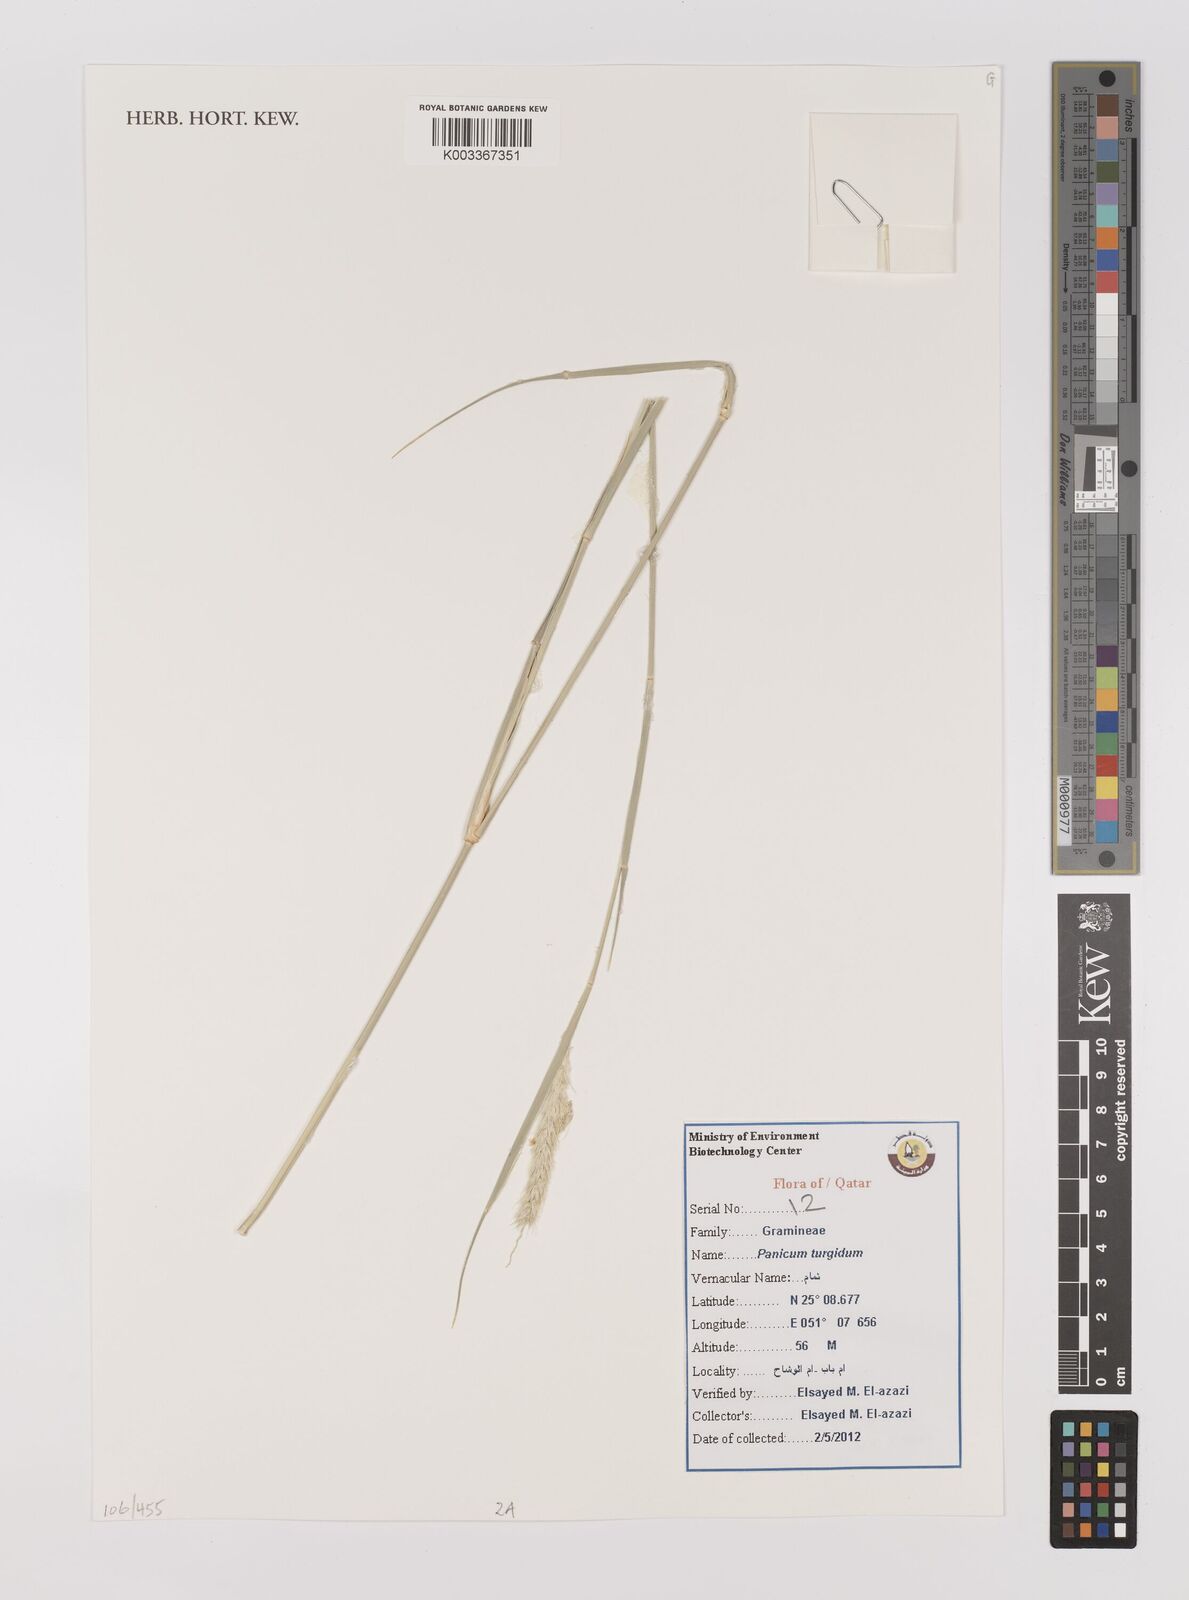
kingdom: Plantae
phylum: Tracheophyta
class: Liliopsida
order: Poales
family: Poaceae
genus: Panicum
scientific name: Panicum turgidum
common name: Desert grass
